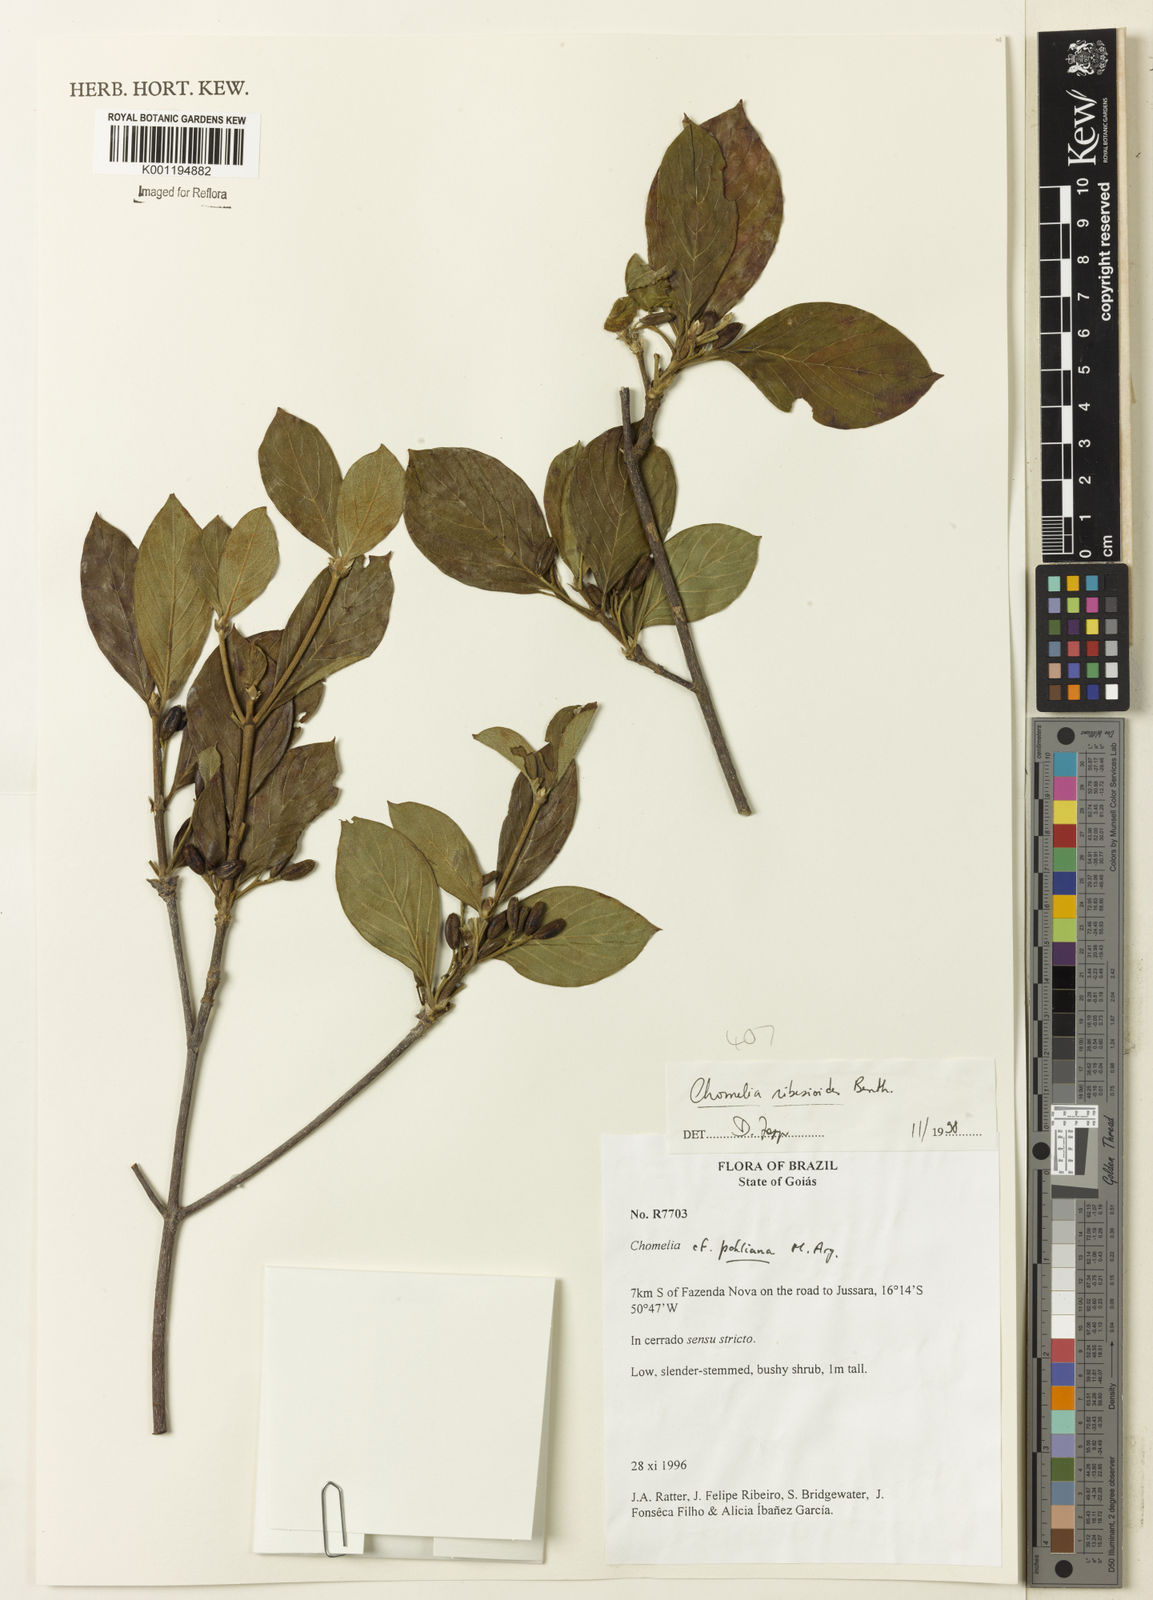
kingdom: Plantae
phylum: Tracheophyta
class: Magnoliopsida
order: Gentianales
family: Rubiaceae
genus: Chomelia
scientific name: Chomelia ribesioides
